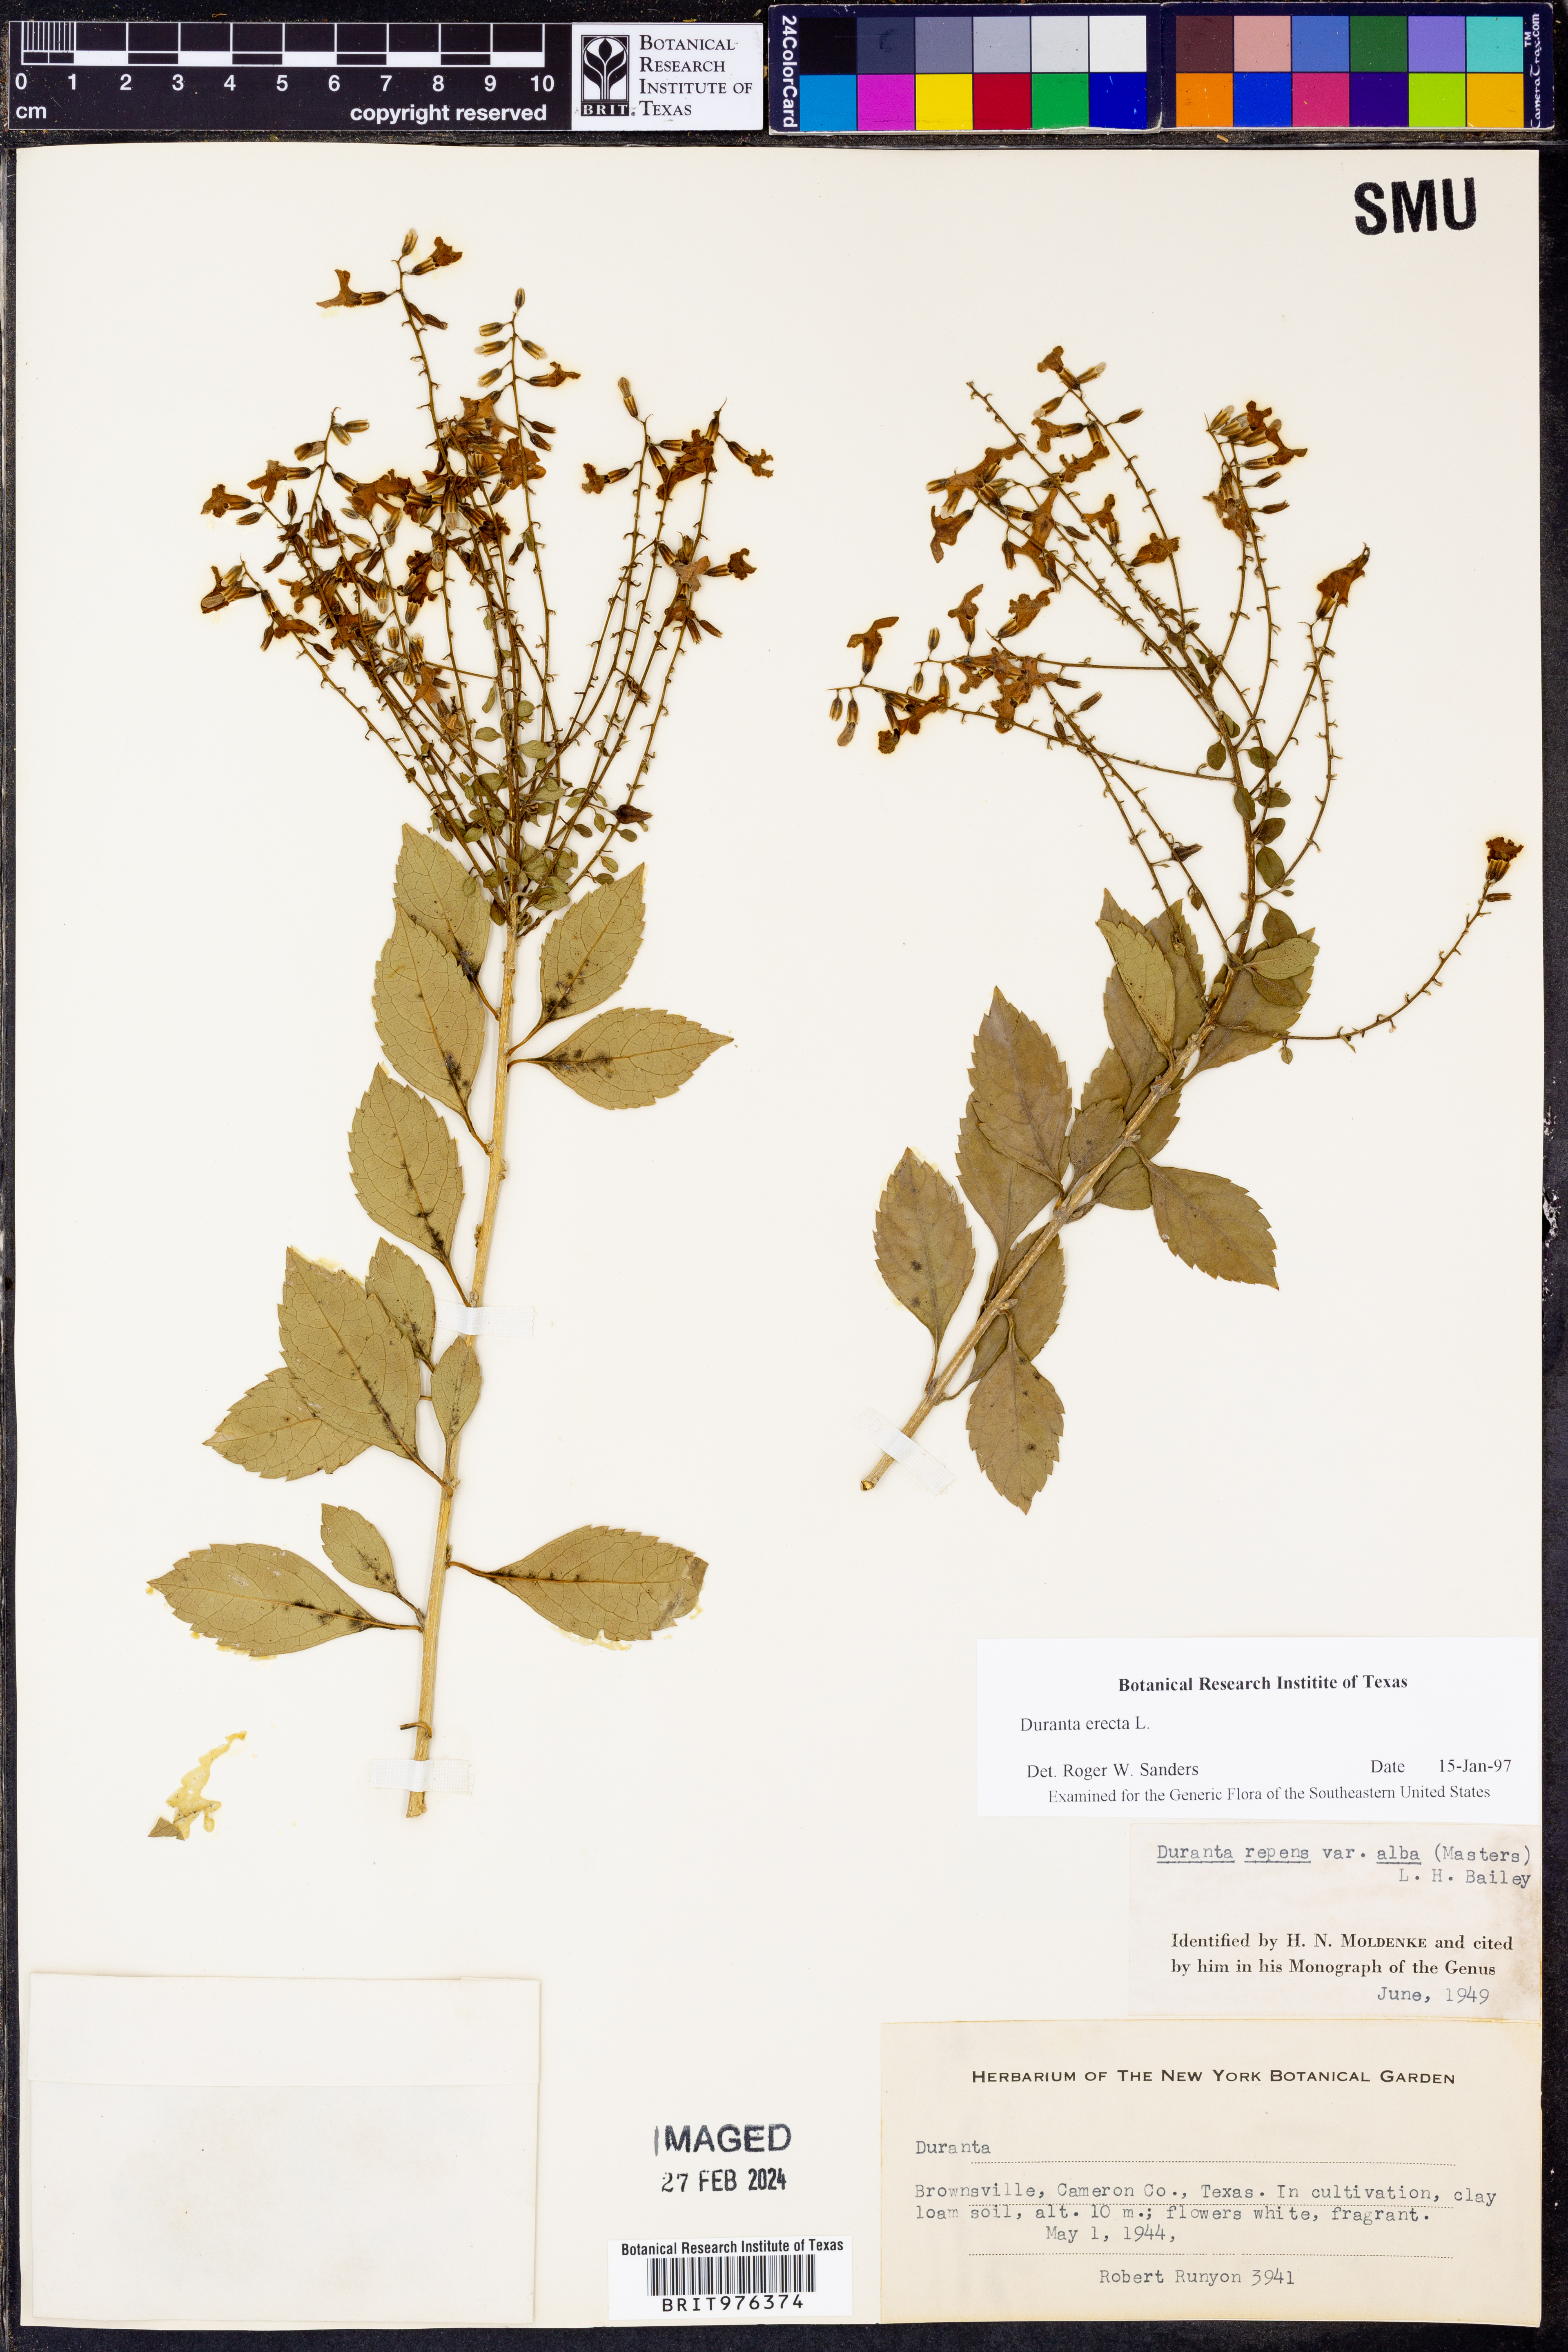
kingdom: Plantae
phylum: Tracheophyta
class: Magnoliopsida
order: Lamiales
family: Verbenaceae
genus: Duranta
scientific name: Duranta
